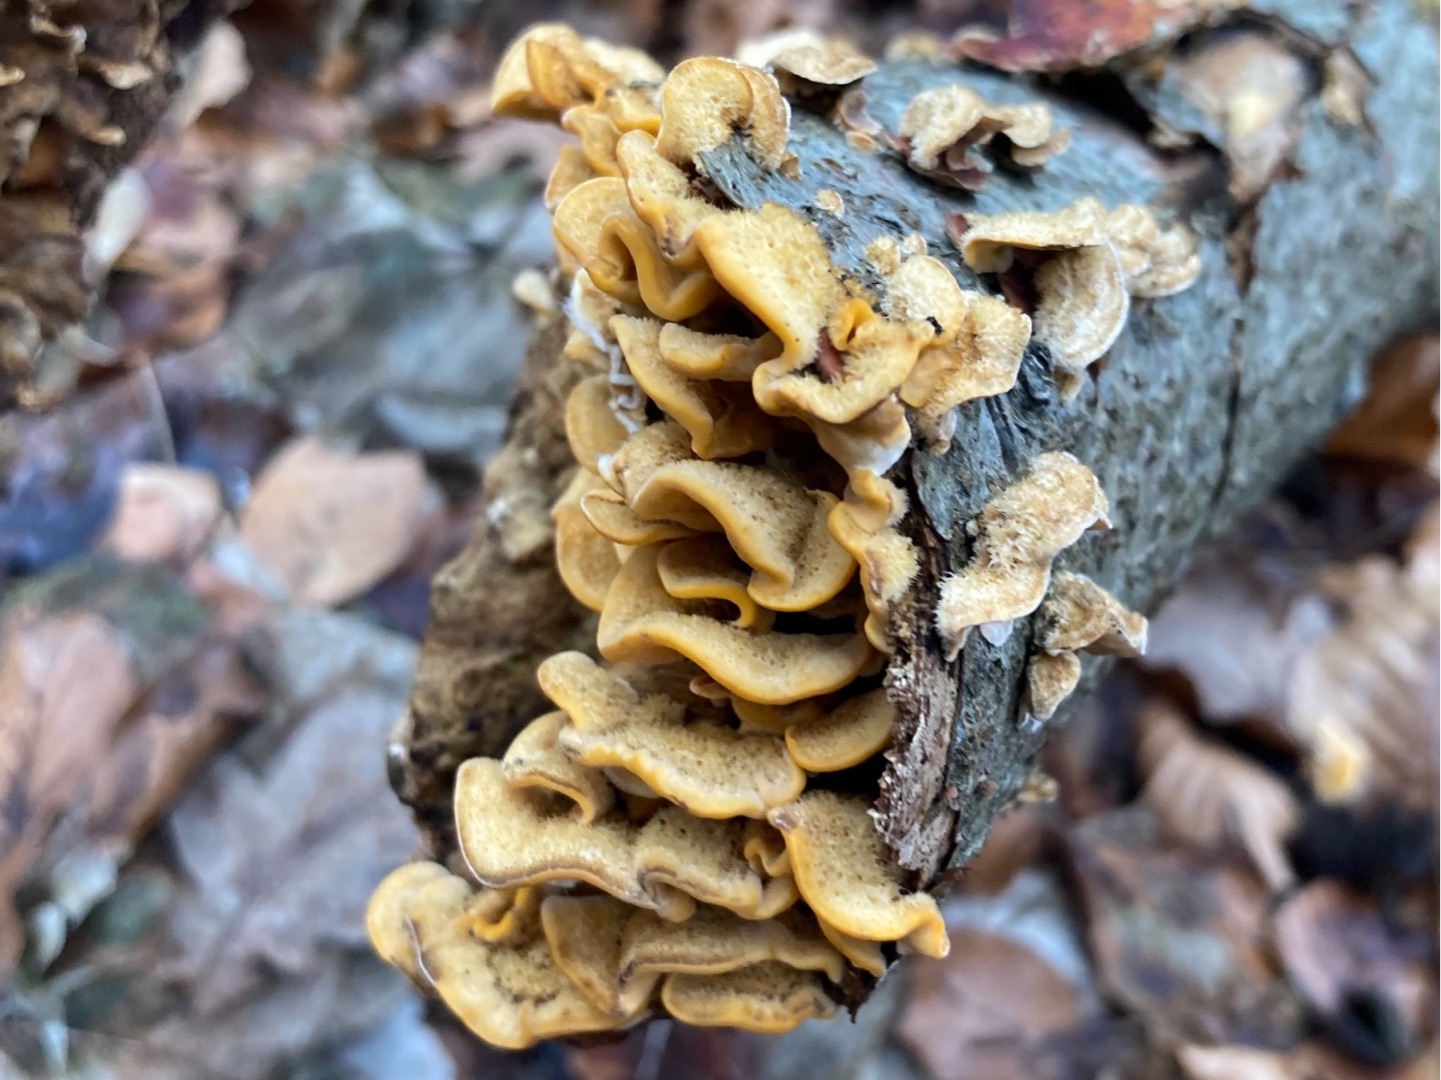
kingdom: Fungi
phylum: Basidiomycota
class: Agaricomycetes
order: Russulales
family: Stereaceae
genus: Stereum
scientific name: Stereum hirsutum
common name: Håret lædersvamp
